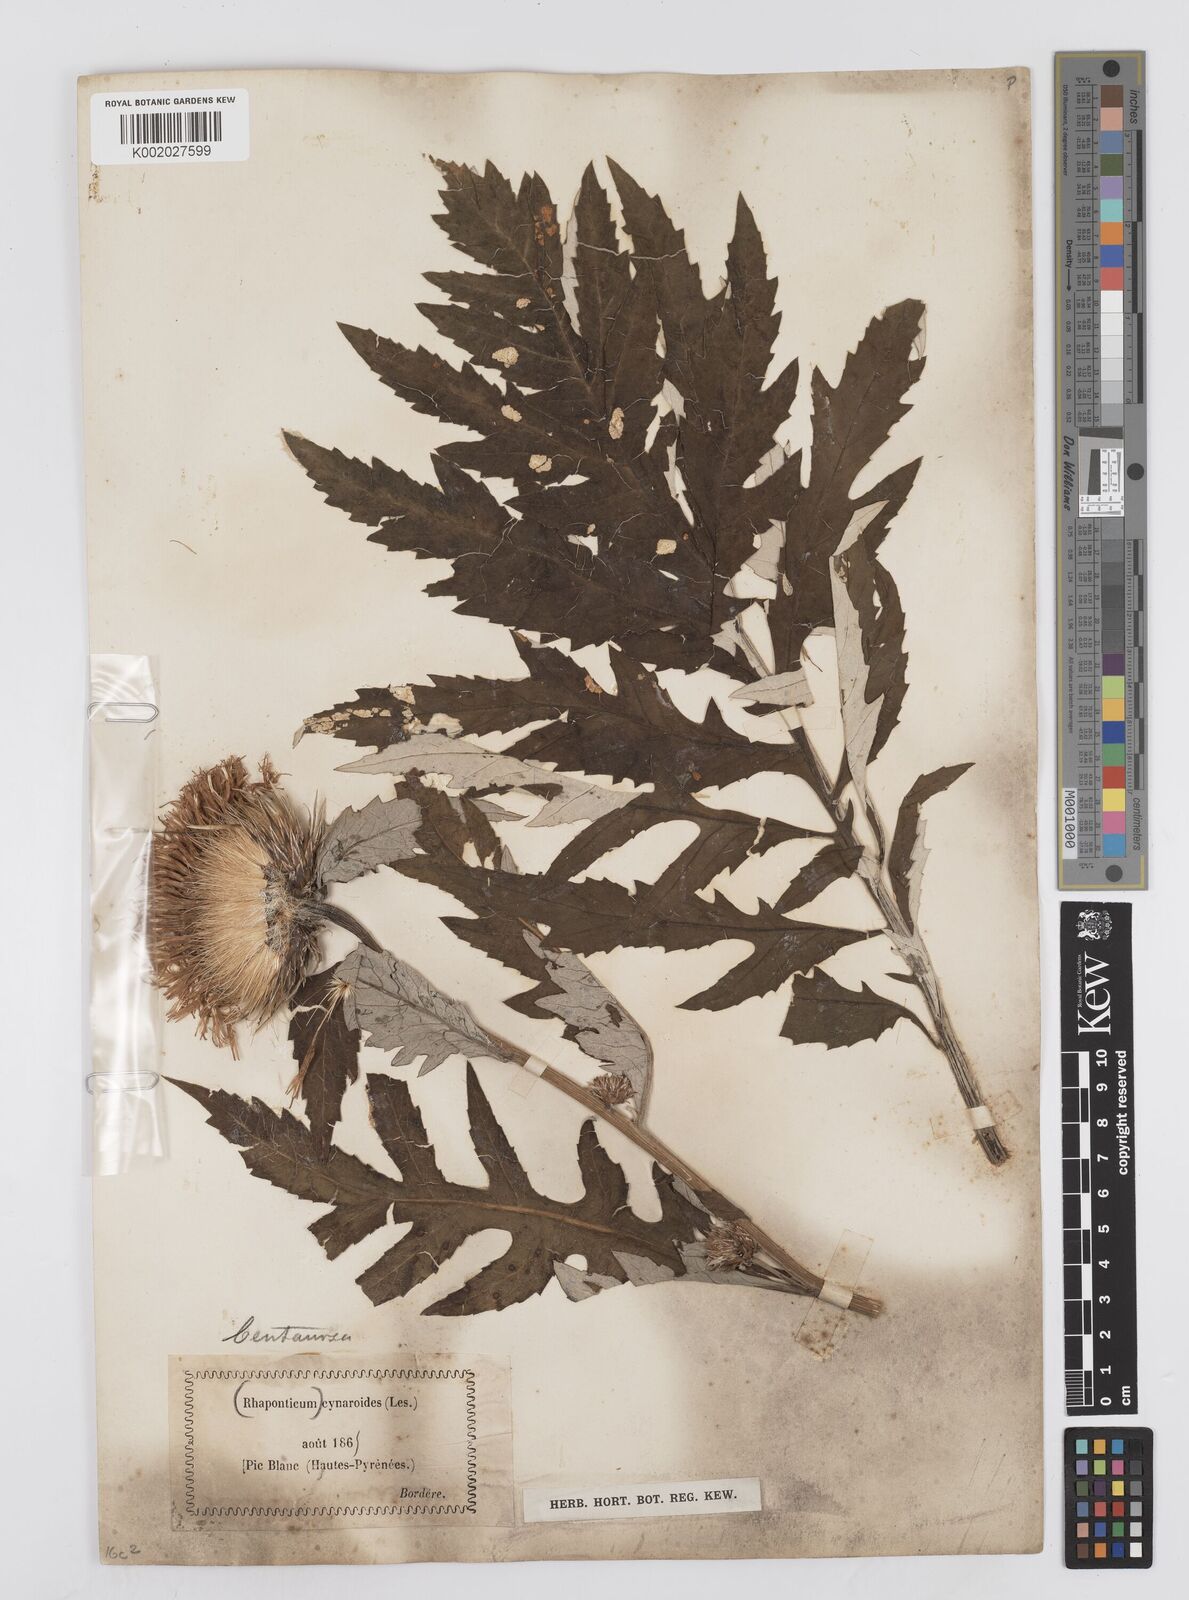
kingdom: Plantae
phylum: Tracheophyta
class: Magnoliopsida
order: Asterales
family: Asteraceae
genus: Leuzea
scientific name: Leuzea centauroides
